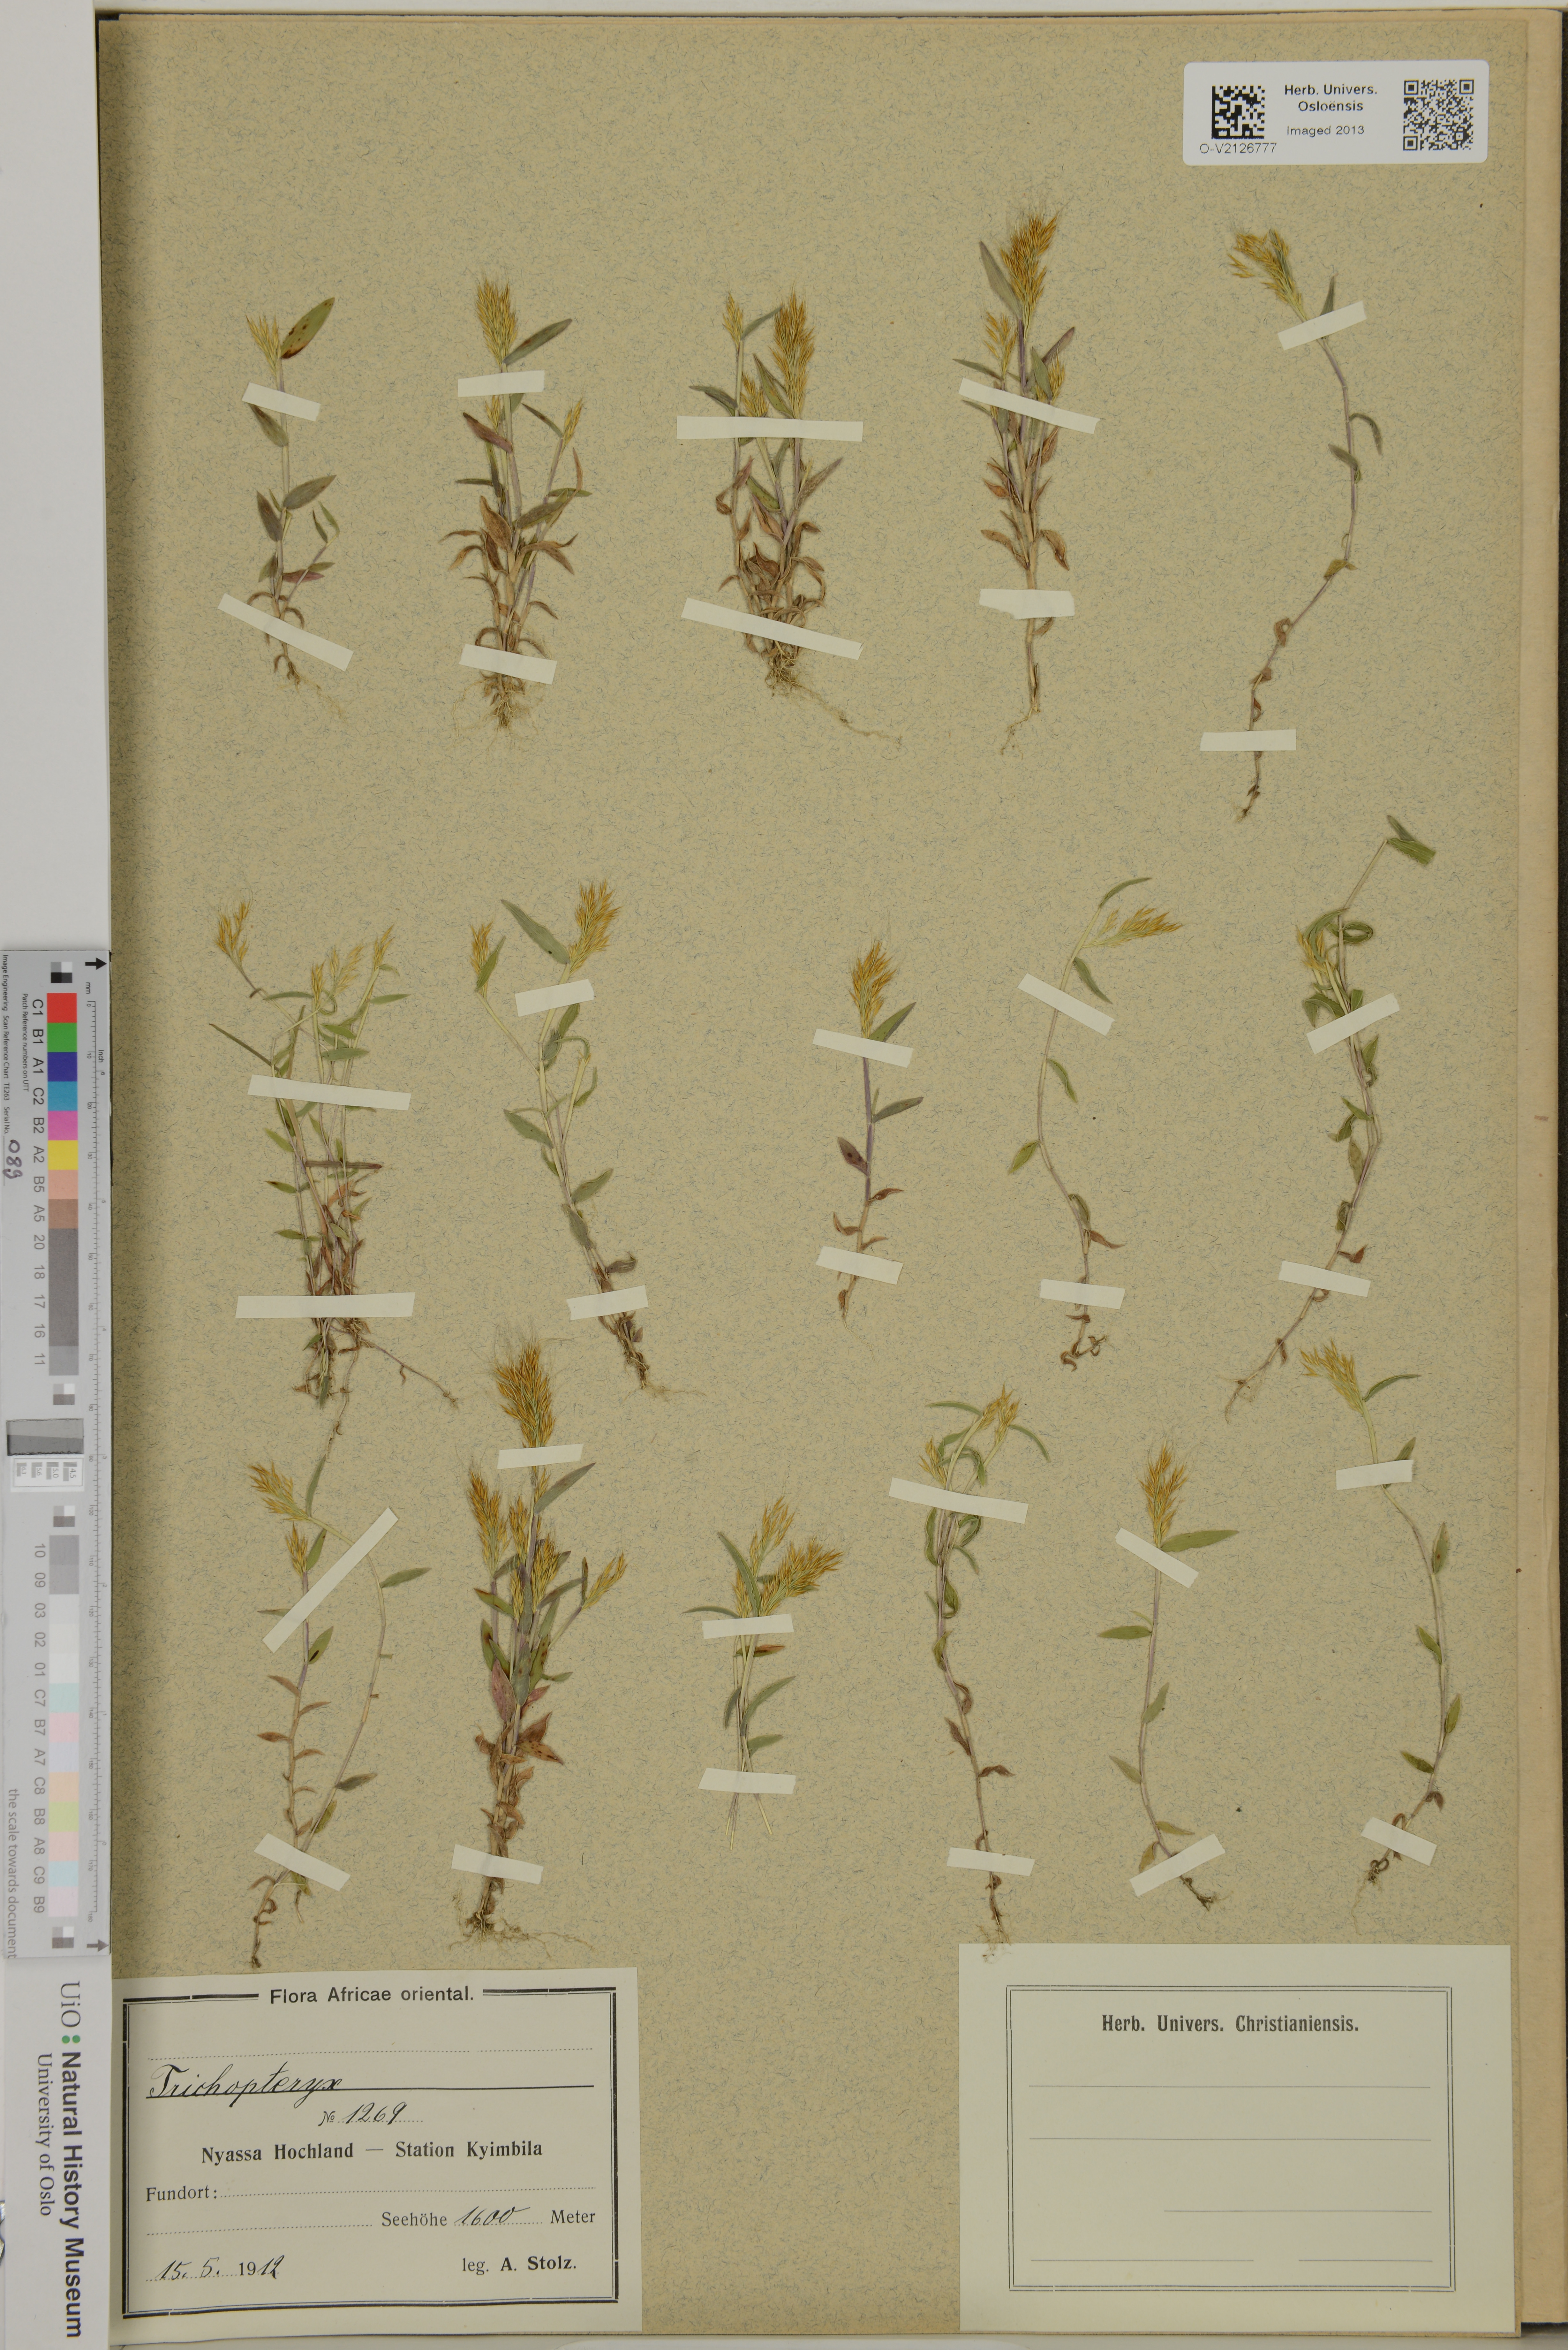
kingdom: Plantae
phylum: Tracheophyta
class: Liliopsida
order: Poales
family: Poaceae
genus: Trichopteryx
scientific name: Trichopteryx
